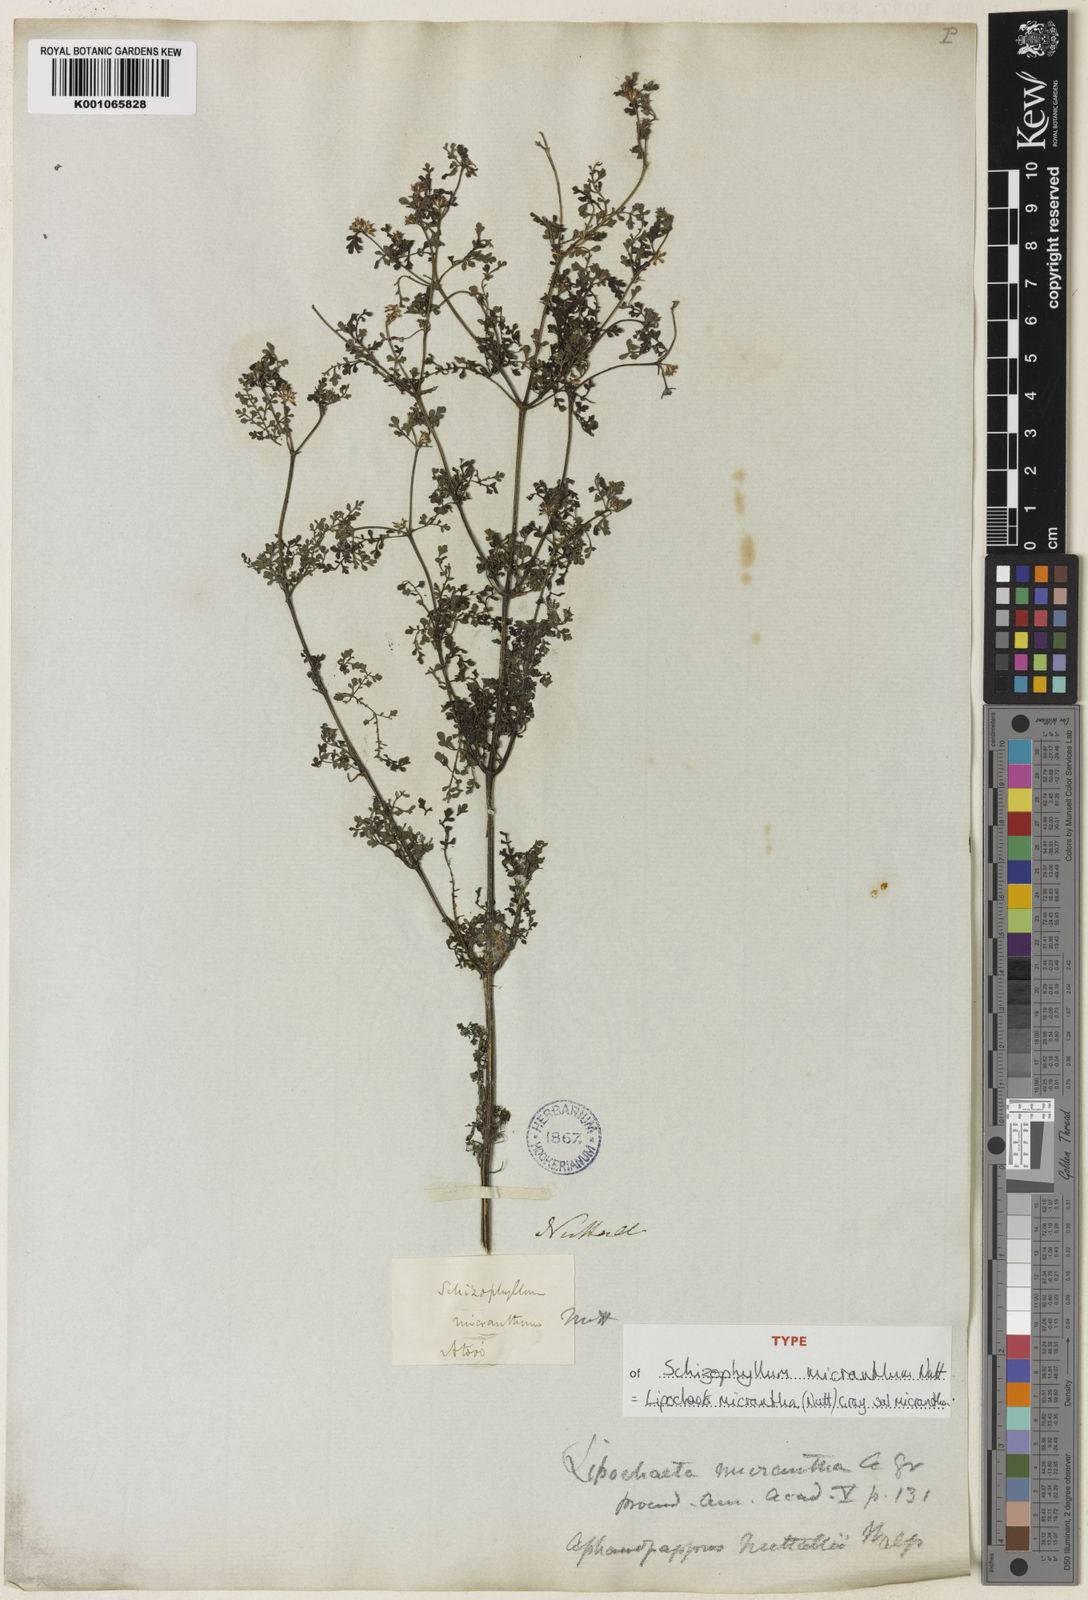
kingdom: Plantae
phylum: Tracheophyta
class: Magnoliopsida
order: Asterales
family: Asteraceae
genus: Lipochaeta
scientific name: Lipochaeta micrantha
